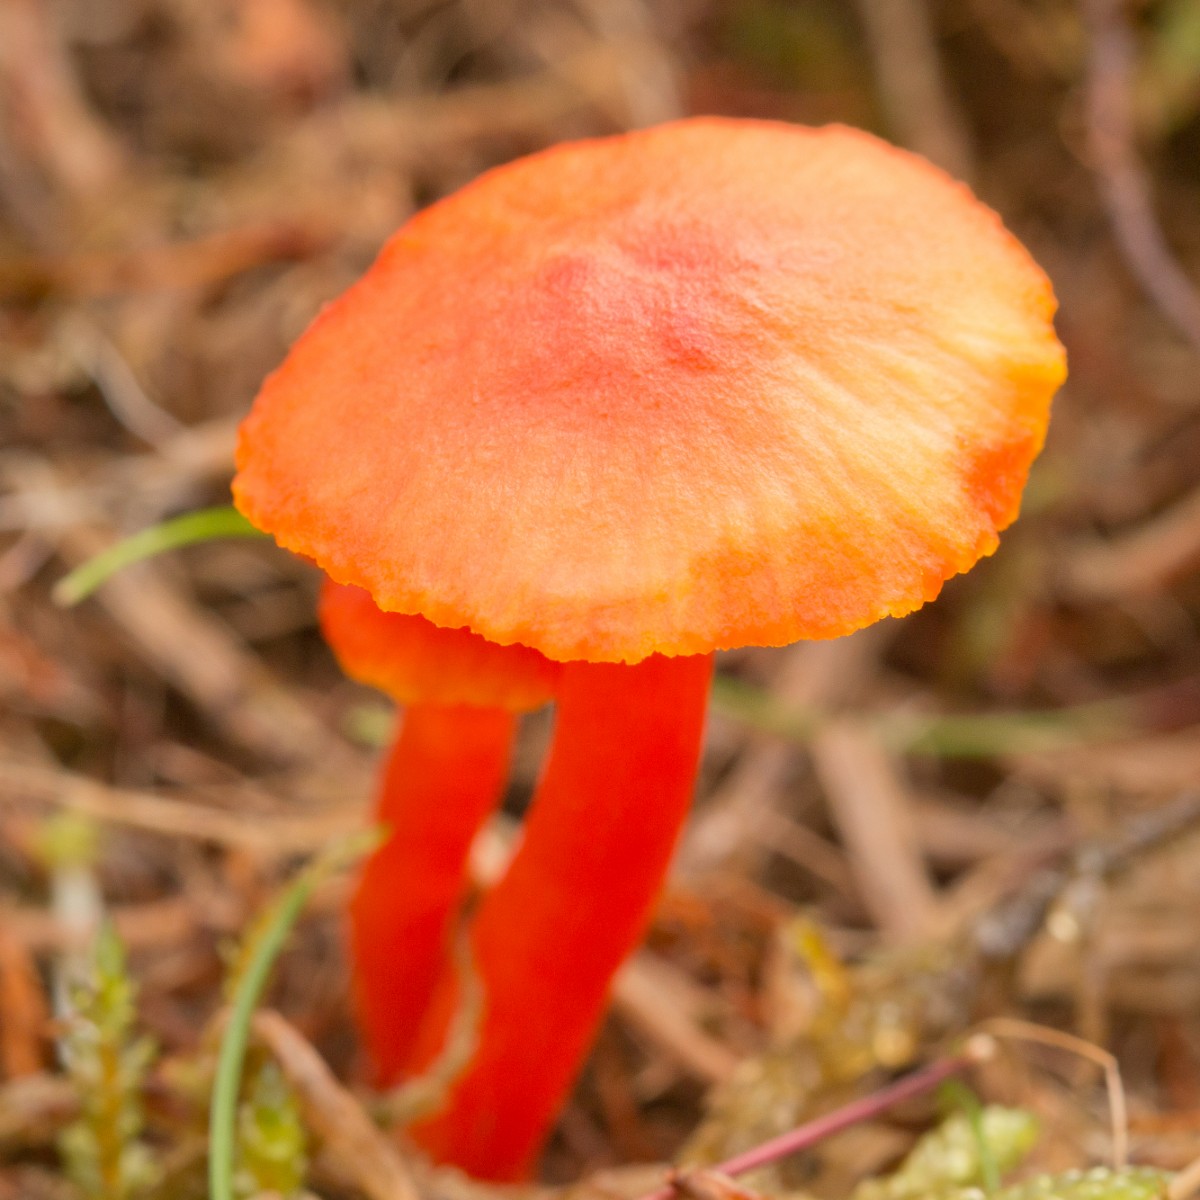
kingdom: Fungi
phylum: Basidiomycota
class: Agaricomycetes
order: Agaricales
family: Hygrophoraceae
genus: Hygrocybe
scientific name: Hygrocybe
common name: vokshat
